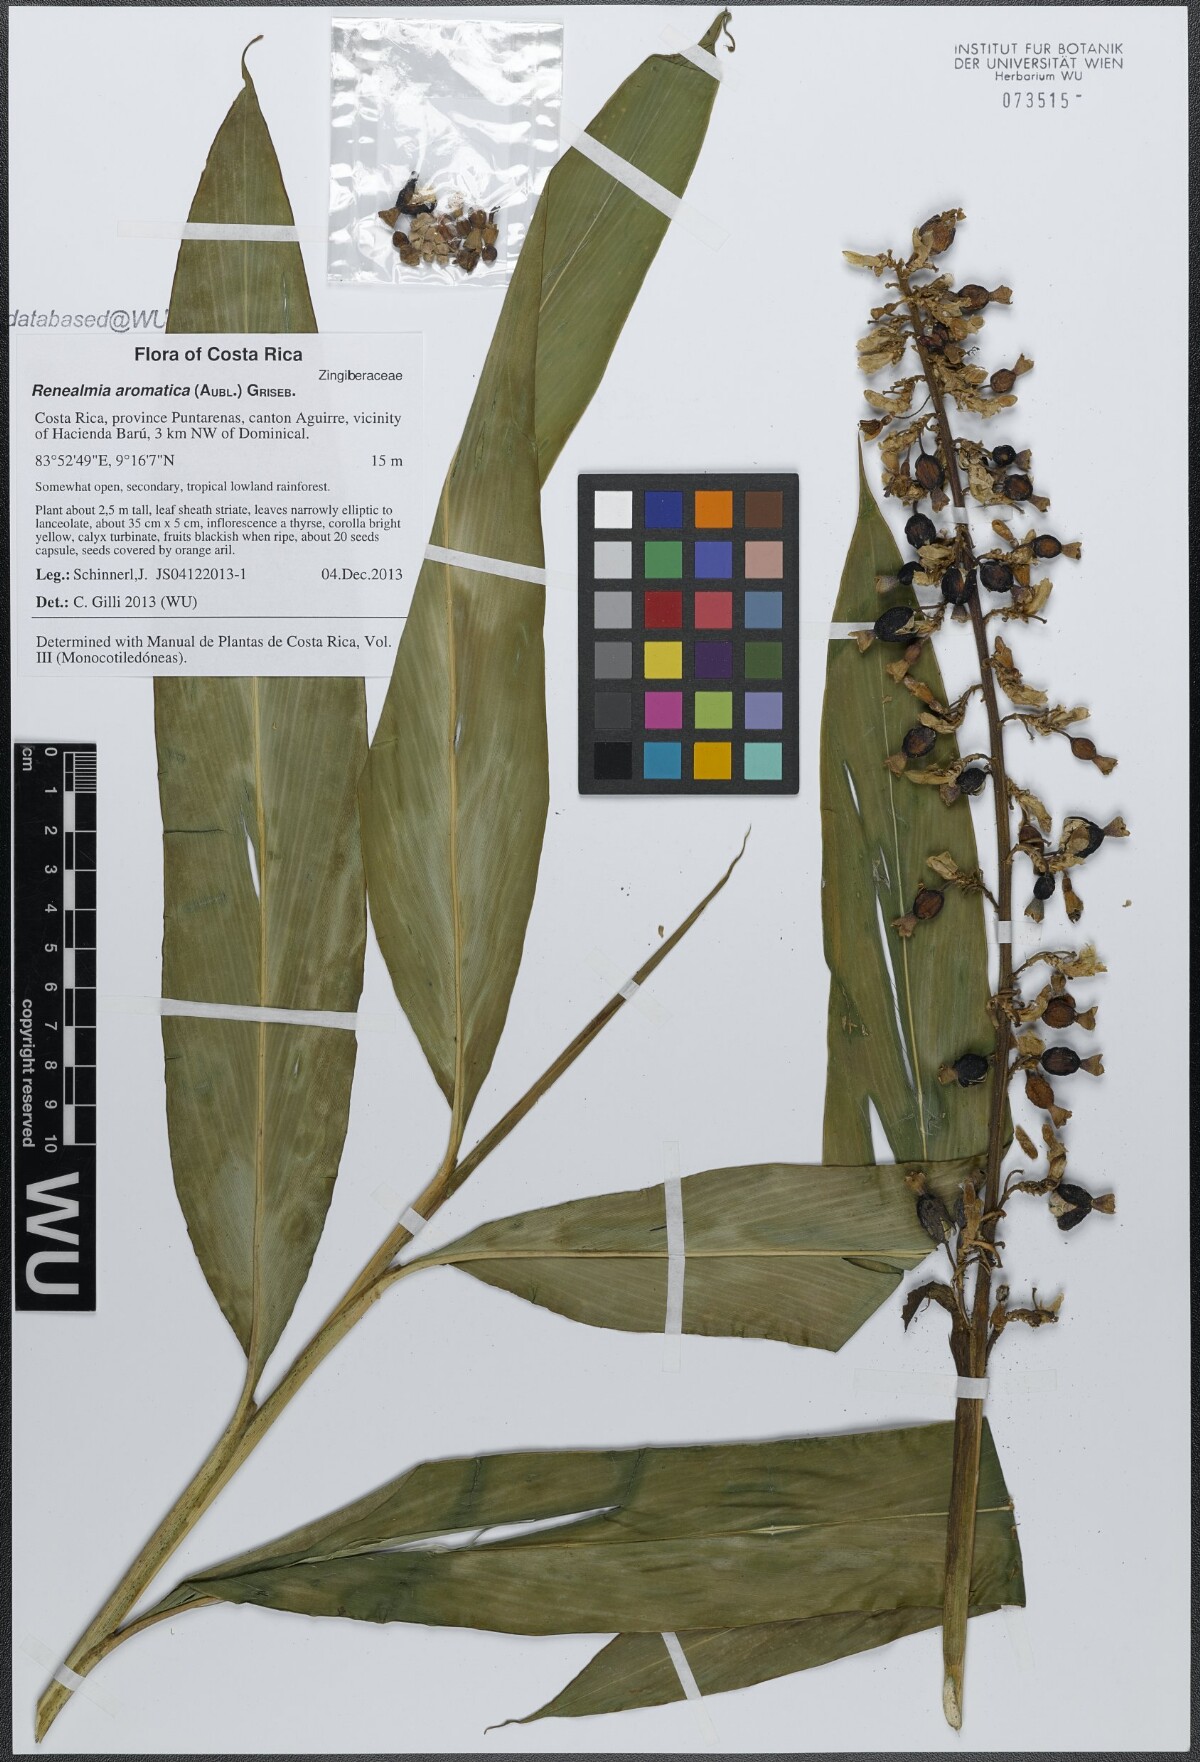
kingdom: Plantae
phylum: Tracheophyta
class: Liliopsida
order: Zingiberales
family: Zingiberaceae
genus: Renealmia
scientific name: Renealmia aromatica
